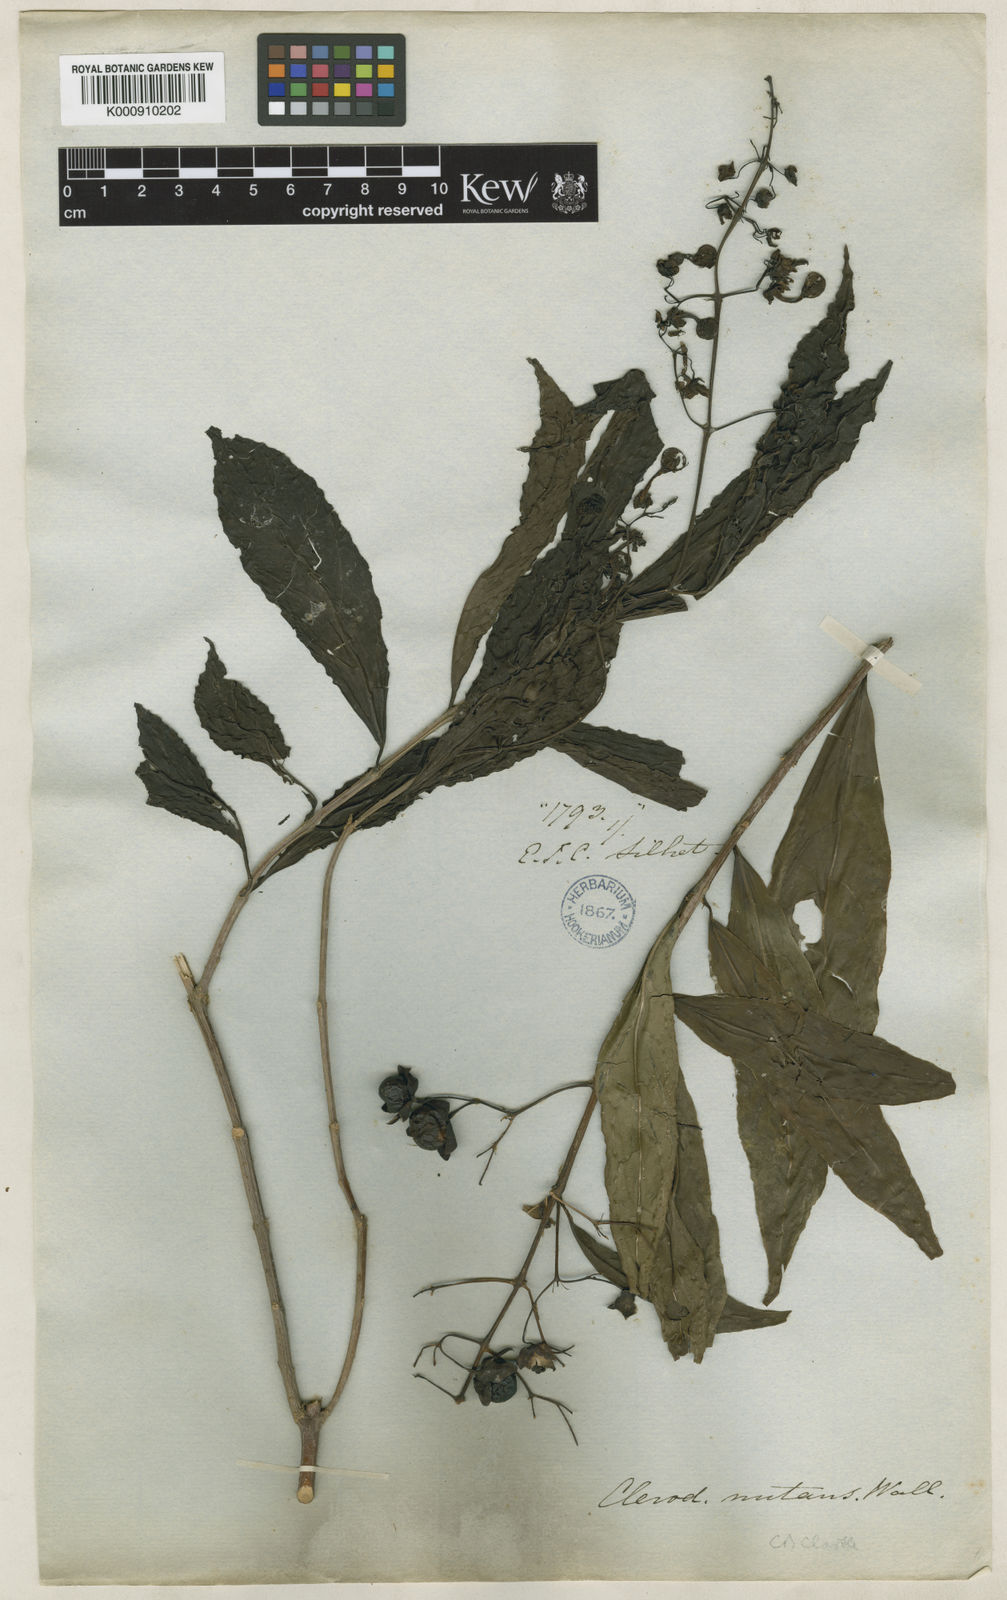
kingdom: Plantae
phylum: Tracheophyta
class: Magnoliopsida
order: Lamiales
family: Lamiaceae
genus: Clerodendrum
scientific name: Clerodendrum
